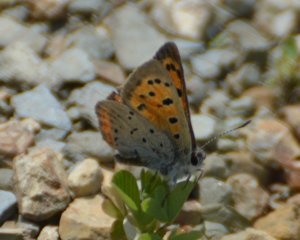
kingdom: Animalia
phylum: Arthropoda
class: Insecta
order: Lepidoptera
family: Lycaenidae
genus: Lycaena
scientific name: Lycaena phlaeas
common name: American Copper
